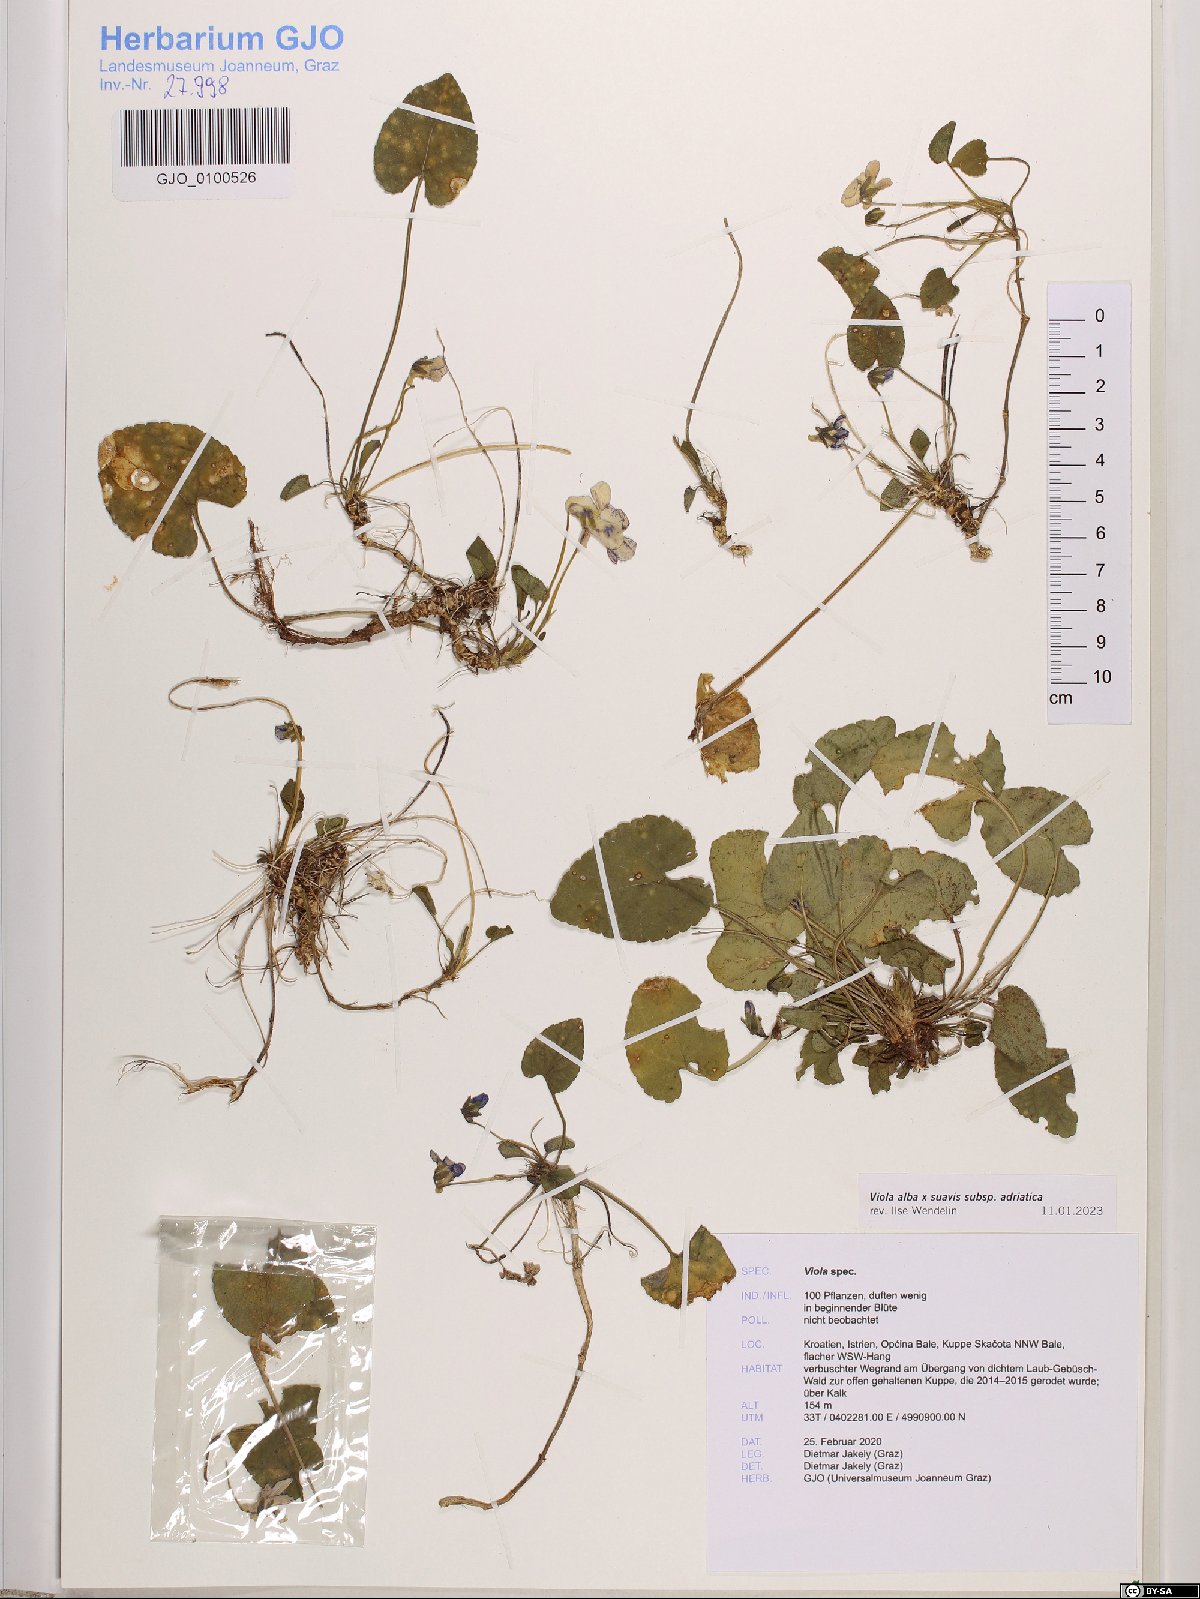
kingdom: Plantae
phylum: Tracheophyta
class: Magnoliopsida
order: Malpighiales
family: Violaceae
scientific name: Violaceae
